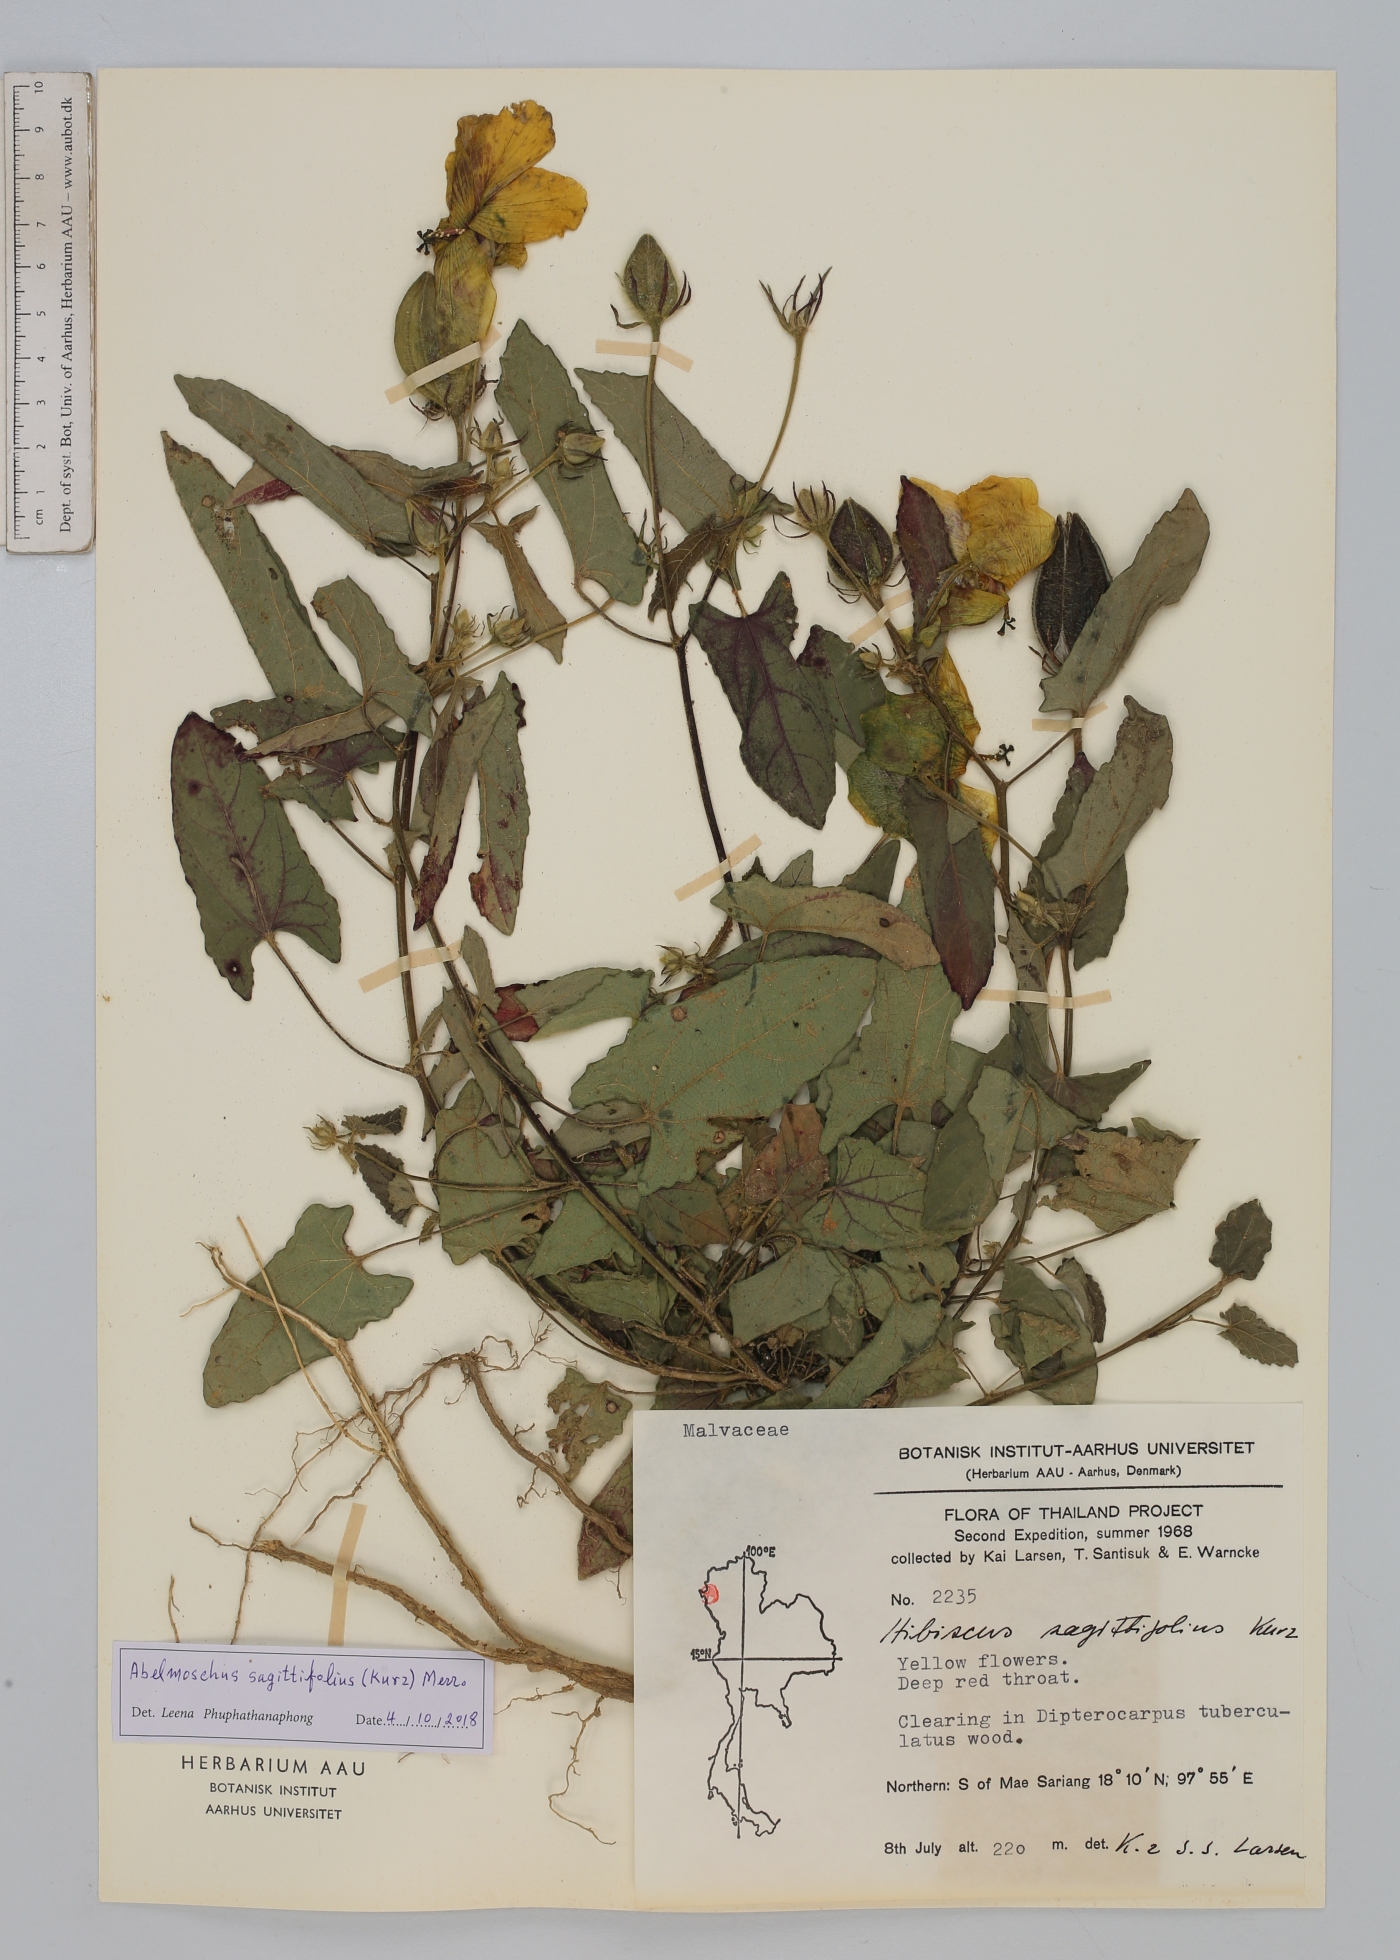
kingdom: Plantae
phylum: Tracheophyta
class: Magnoliopsida
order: Malvales
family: Malvaceae
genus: Abelmoschus
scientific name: Abelmoschus sagittifolius
